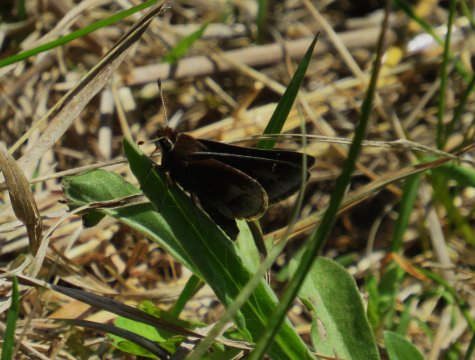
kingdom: Animalia
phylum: Arthropoda
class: Insecta
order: Lepidoptera
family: Hesperiidae
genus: Atrytonopsis
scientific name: Atrytonopsis hianna
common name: Dusted Skipper
